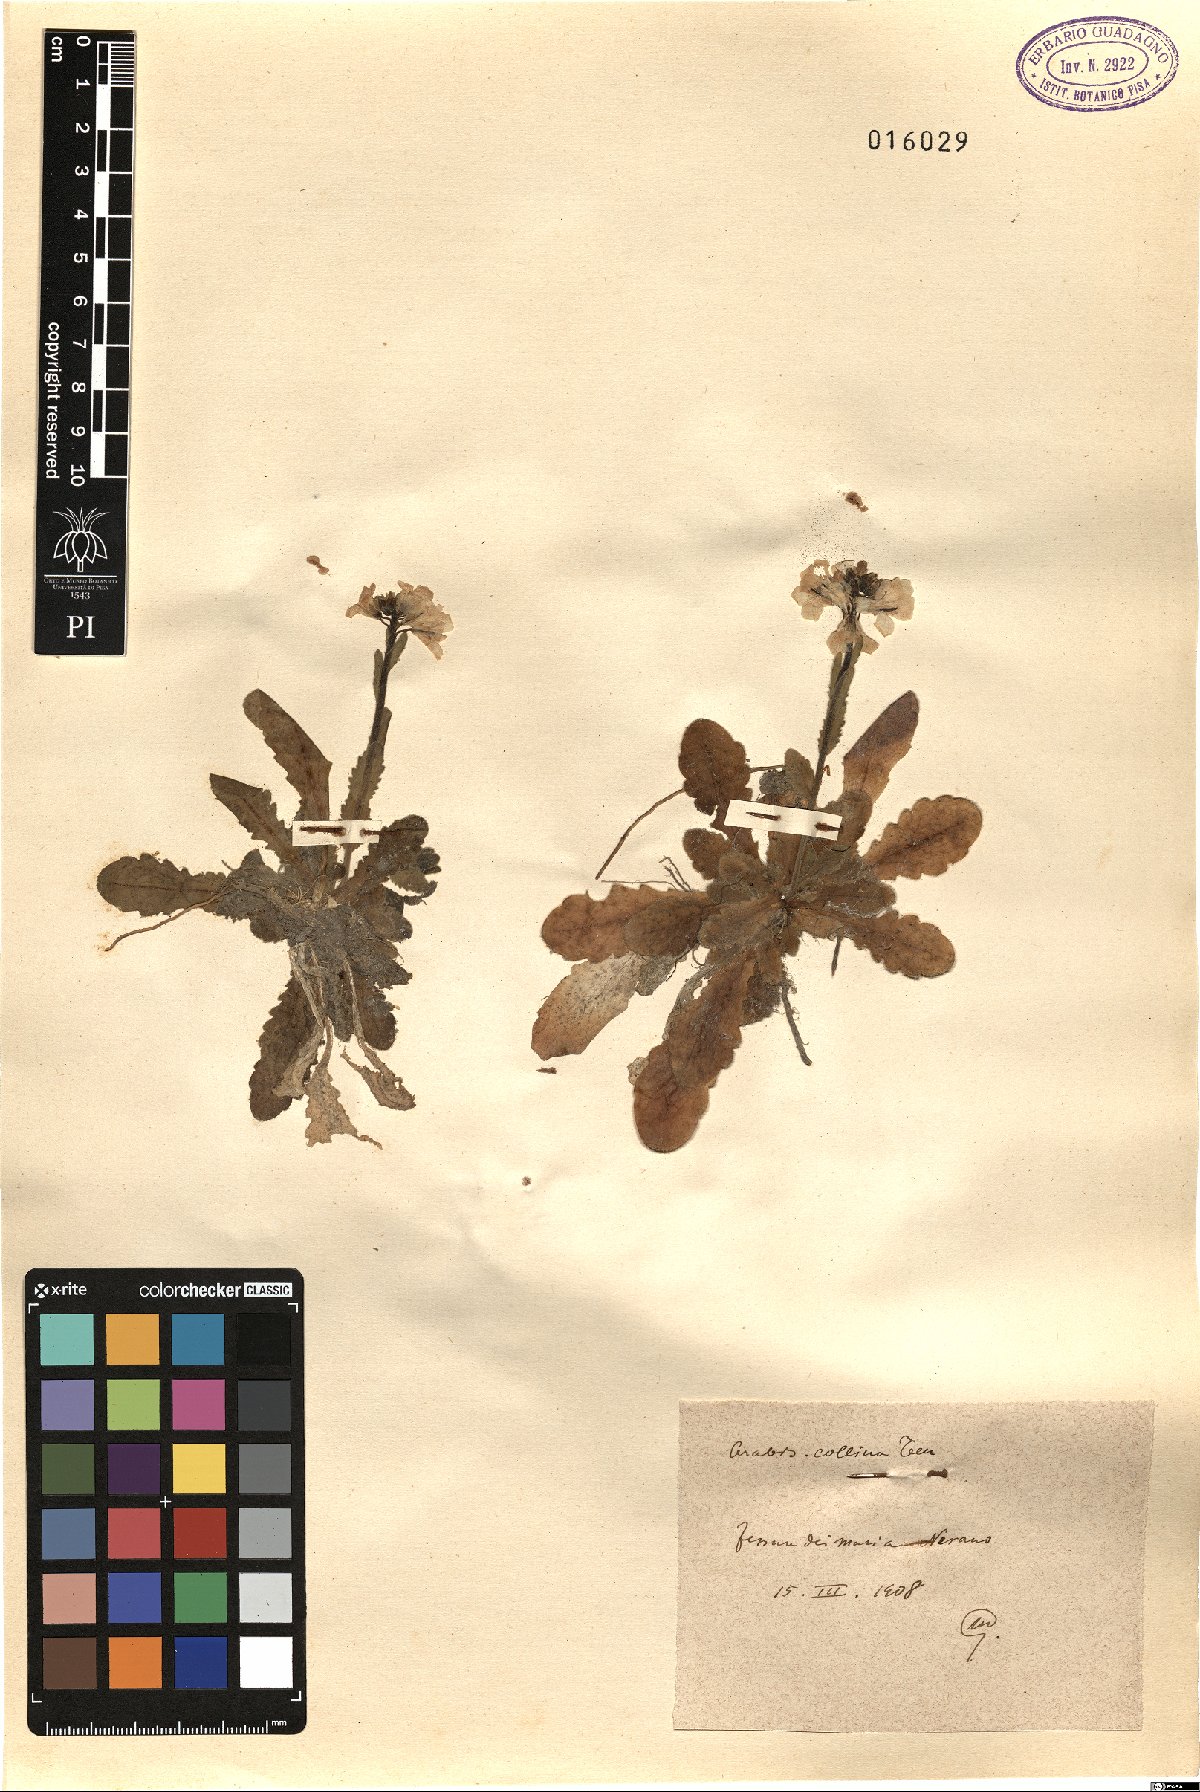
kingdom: Plantae
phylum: Tracheophyta
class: Magnoliopsida
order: Brassicales
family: Brassicaceae
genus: Arabis
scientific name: Arabis collina
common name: Rosy cress
